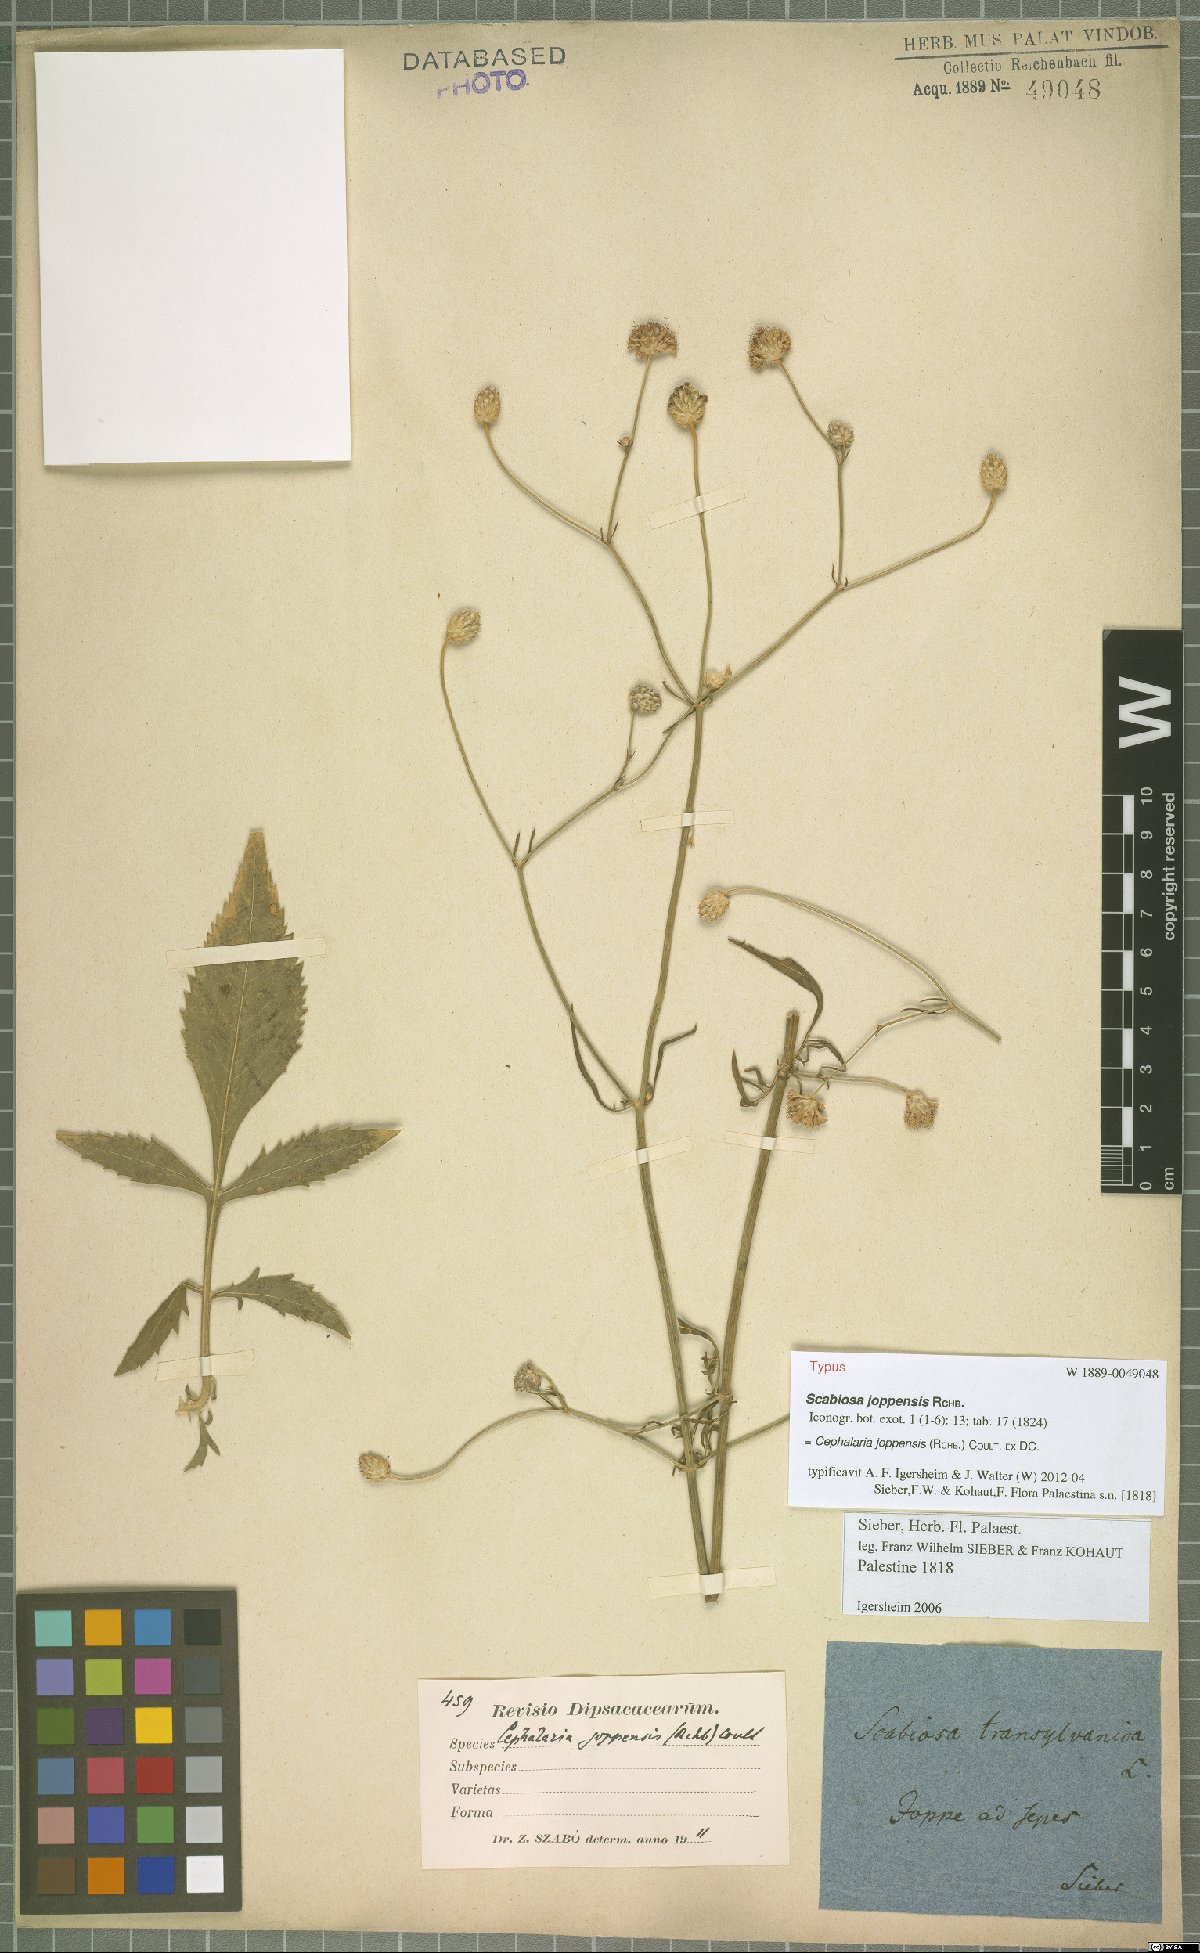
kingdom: Plantae
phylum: Tracheophyta
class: Magnoliopsida
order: Dipsacales
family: Caprifoliaceae
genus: Cephalaria
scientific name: Cephalaria joppensis
